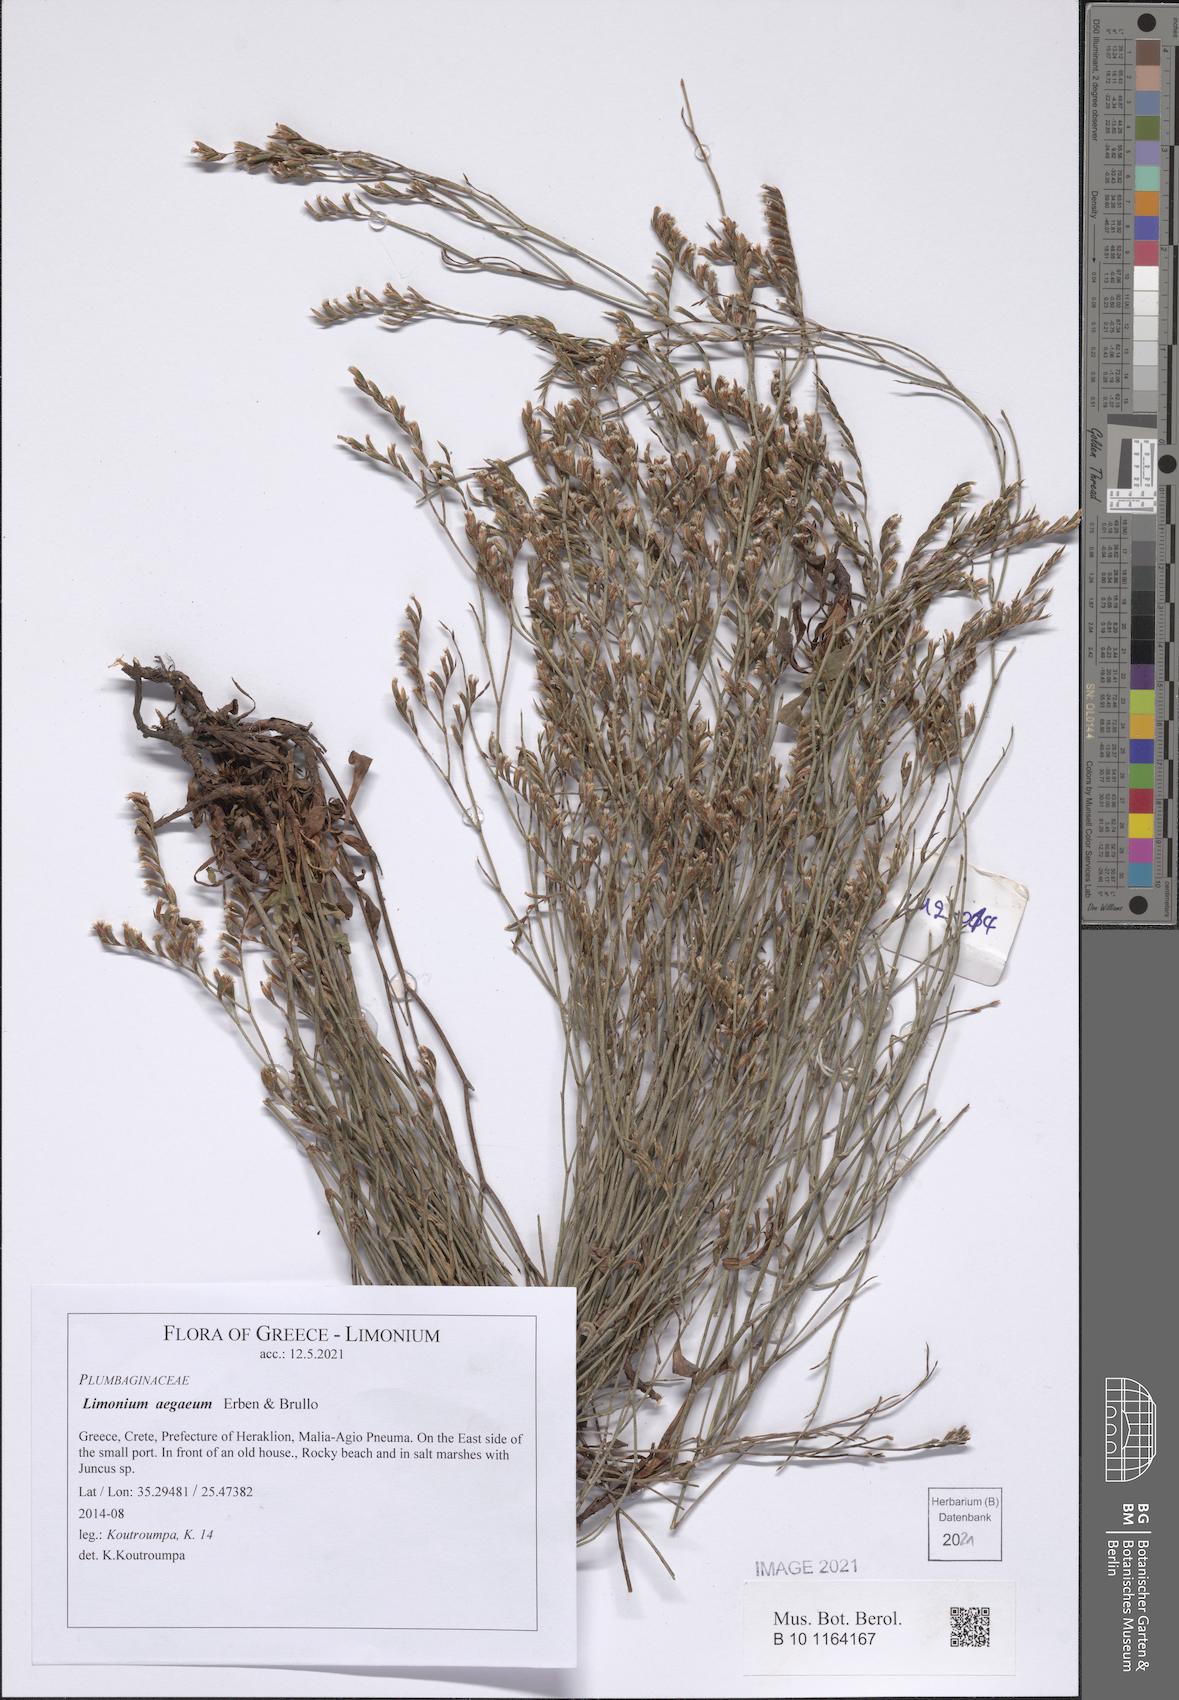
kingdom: Plantae
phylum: Tracheophyta
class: Magnoliopsida
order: Caryophyllales
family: Plumbaginaceae
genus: Limonium
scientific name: Limonium aegaeum
